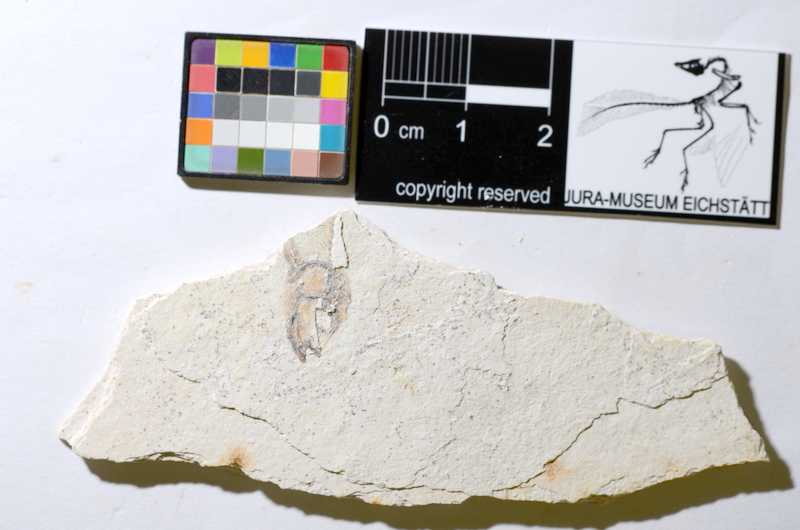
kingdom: Animalia
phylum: Chordata
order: Salmoniformes
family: Orthogonikleithridae
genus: Orthogonikleithrus
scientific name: Orthogonikleithrus hoelli
